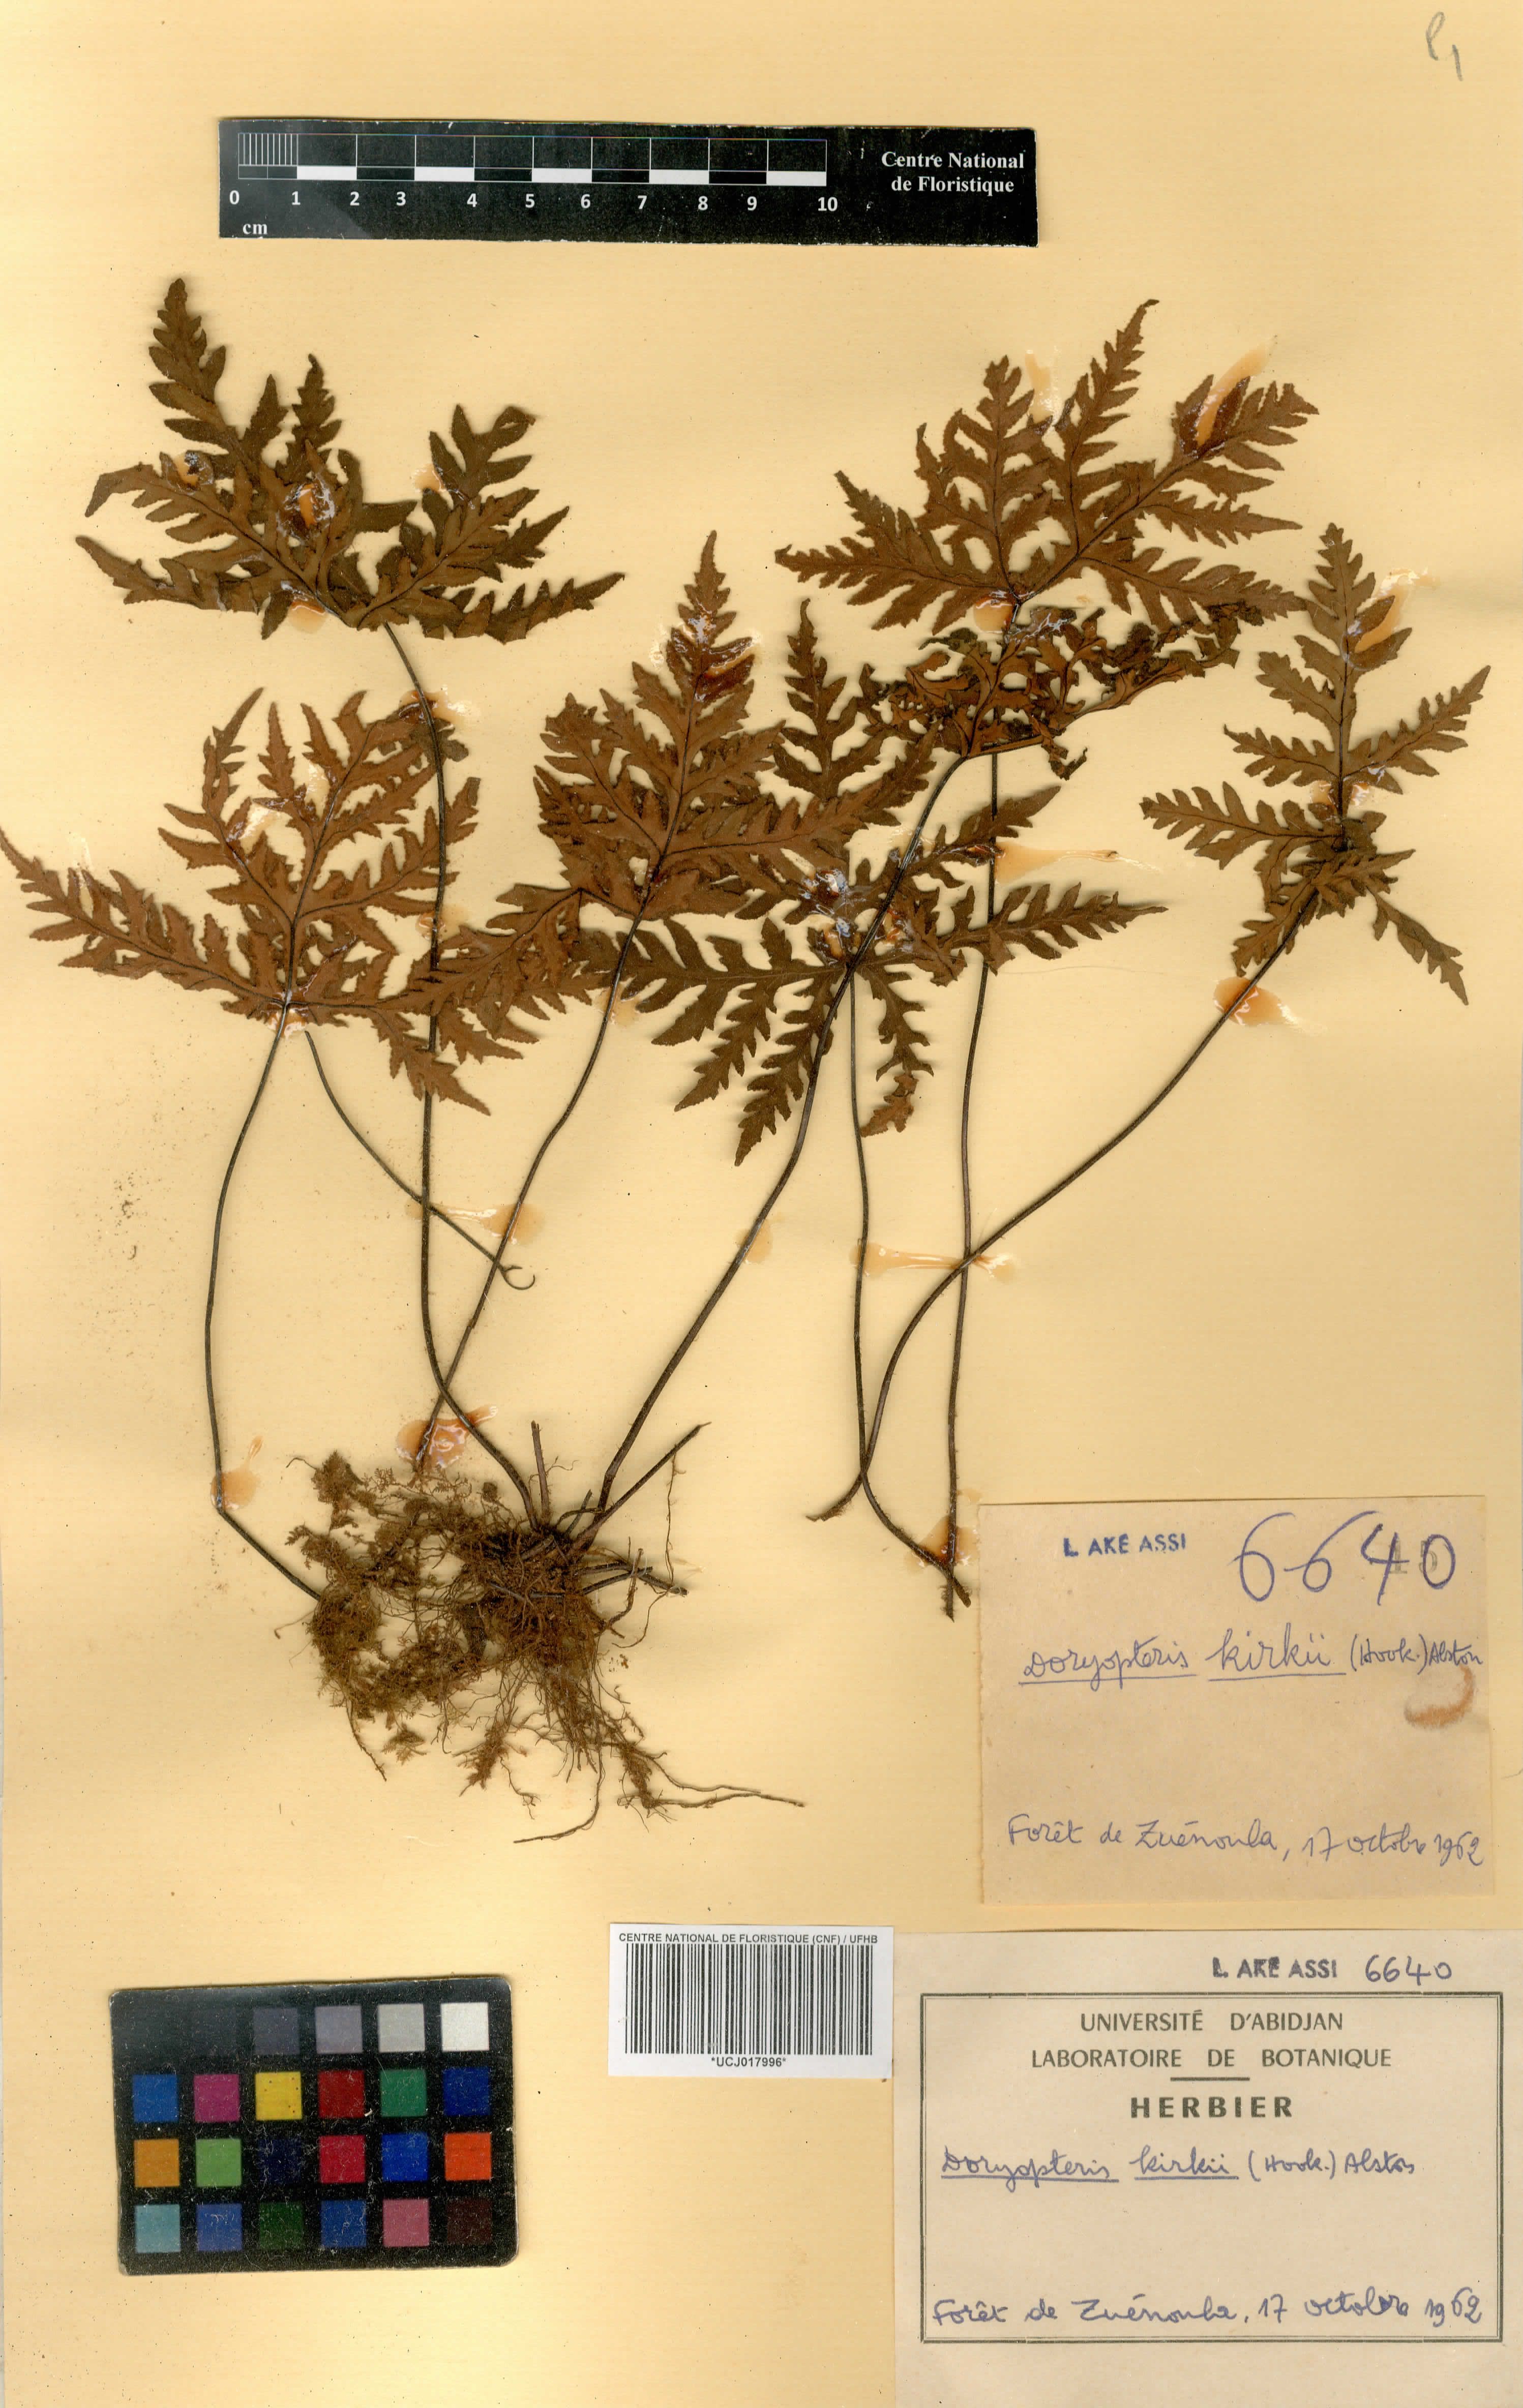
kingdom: Plantae
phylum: Tracheophyta
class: Polypodiopsida
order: Polypodiales
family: Pteridaceae
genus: Doryopteris
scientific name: Doryopteris kirkii
